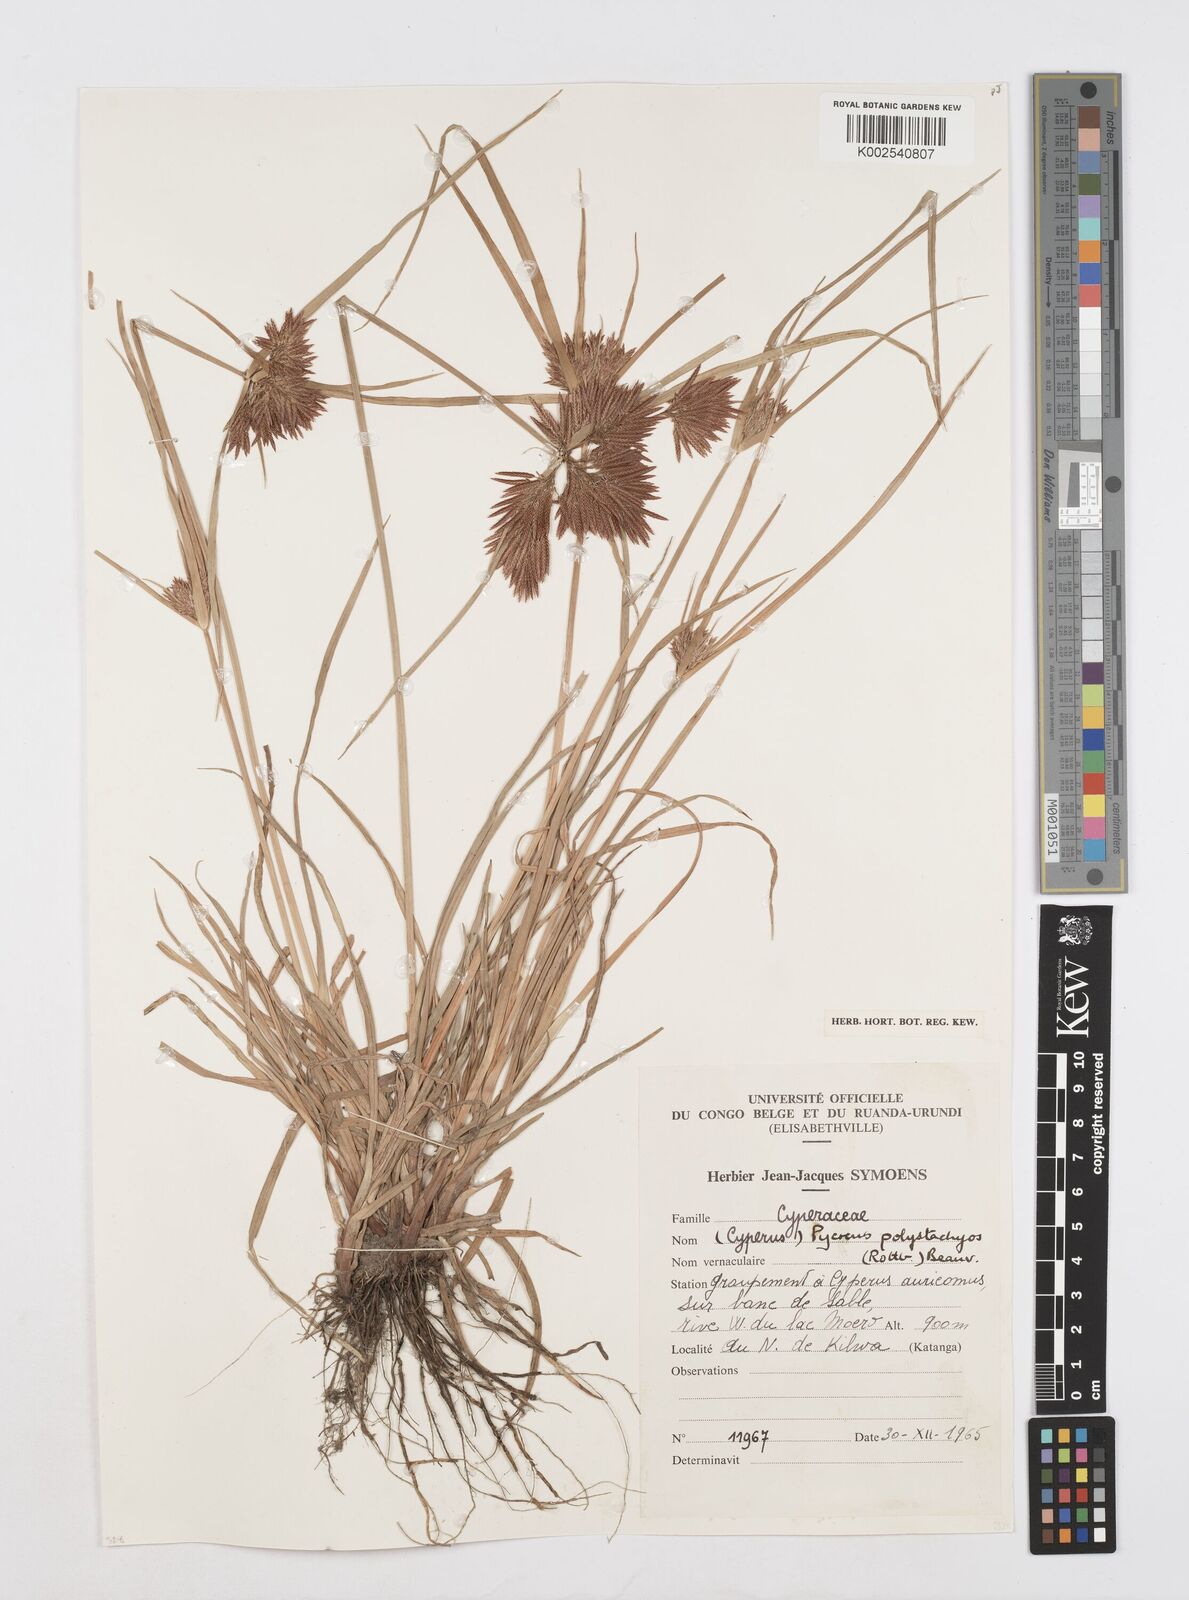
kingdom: Plantae
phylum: Tracheophyta
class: Liliopsida
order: Poales
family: Cyperaceae
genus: Cyperus
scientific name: Cyperus polystachyos
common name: Bunchy flat sedge
